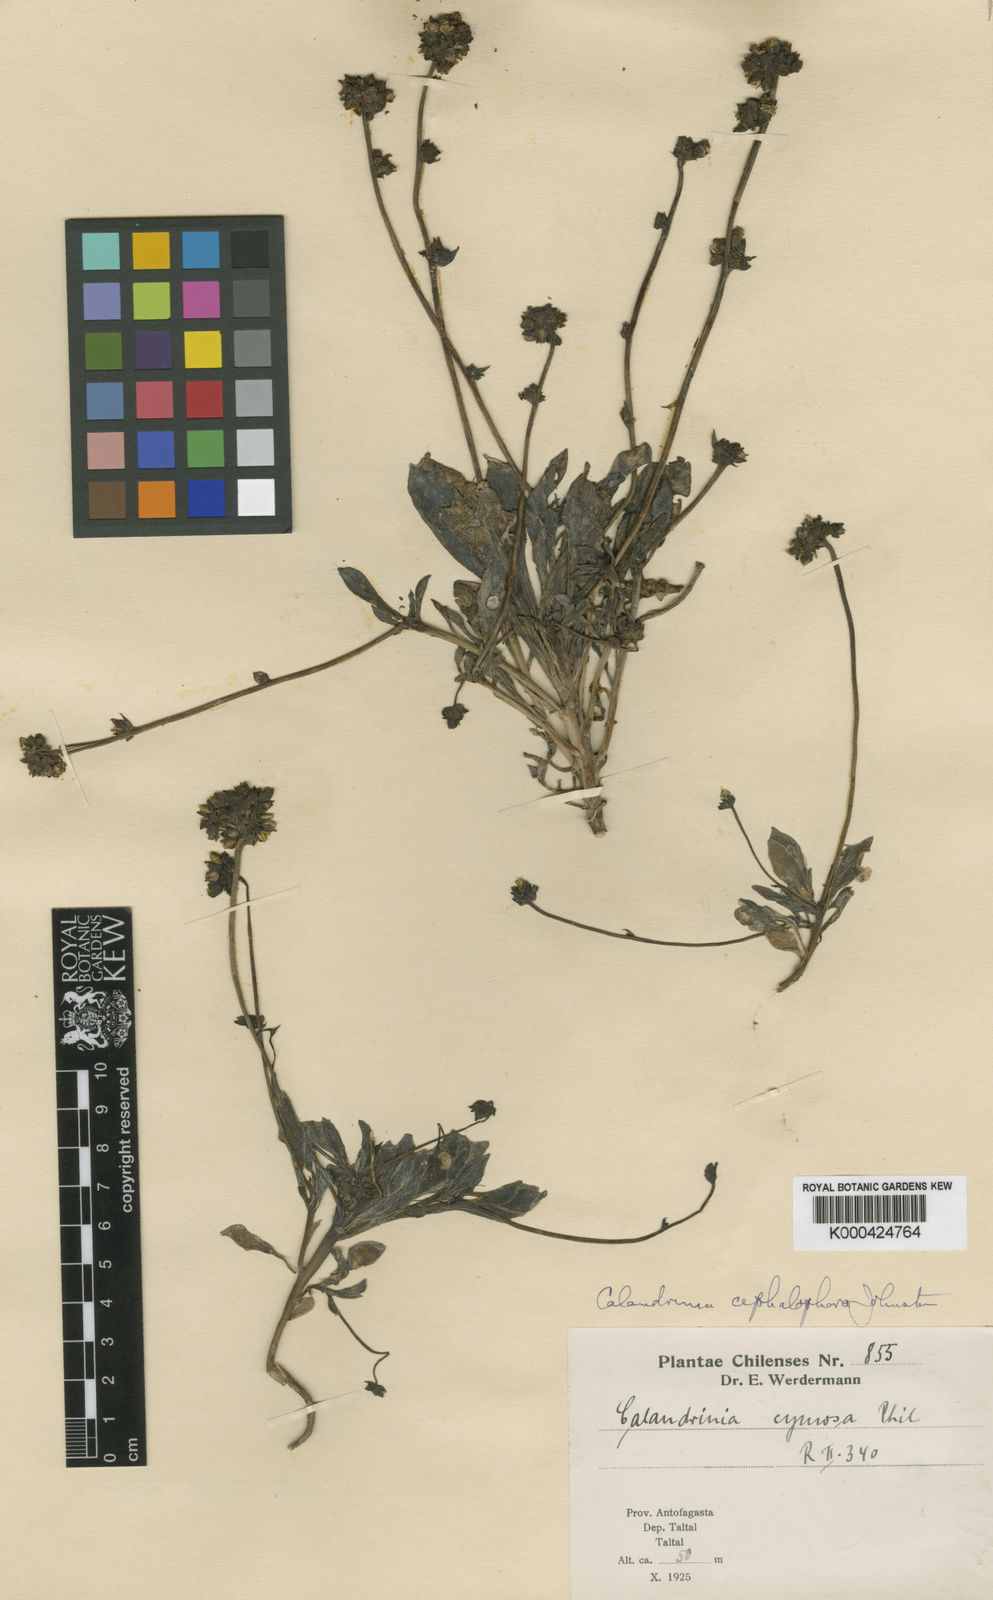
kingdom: Plantae
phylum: Tracheophyta
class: Magnoliopsida
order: Caryophyllales
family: Montiaceae
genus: Cistanthe
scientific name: Cistanthe cephalophora
